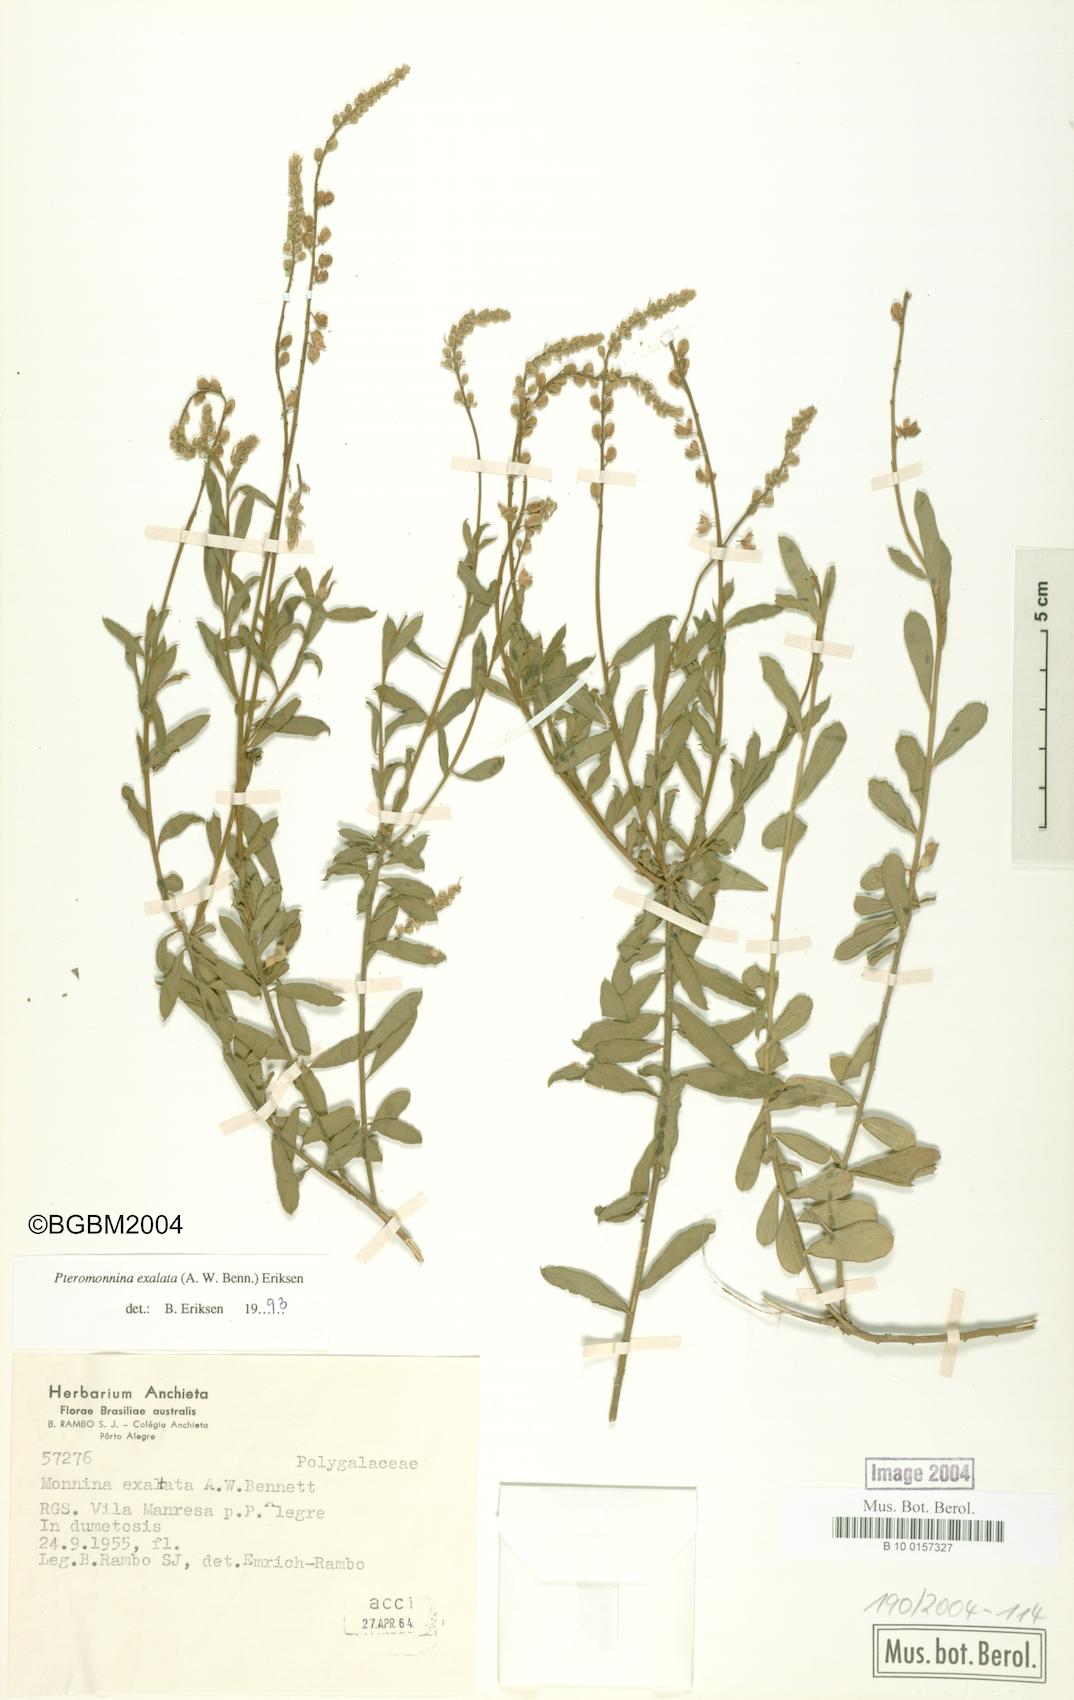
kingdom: Plantae
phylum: Tracheophyta
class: Magnoliopsida
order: Fabales
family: Polygalaceae
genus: Monnina
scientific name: Monnina exalata
